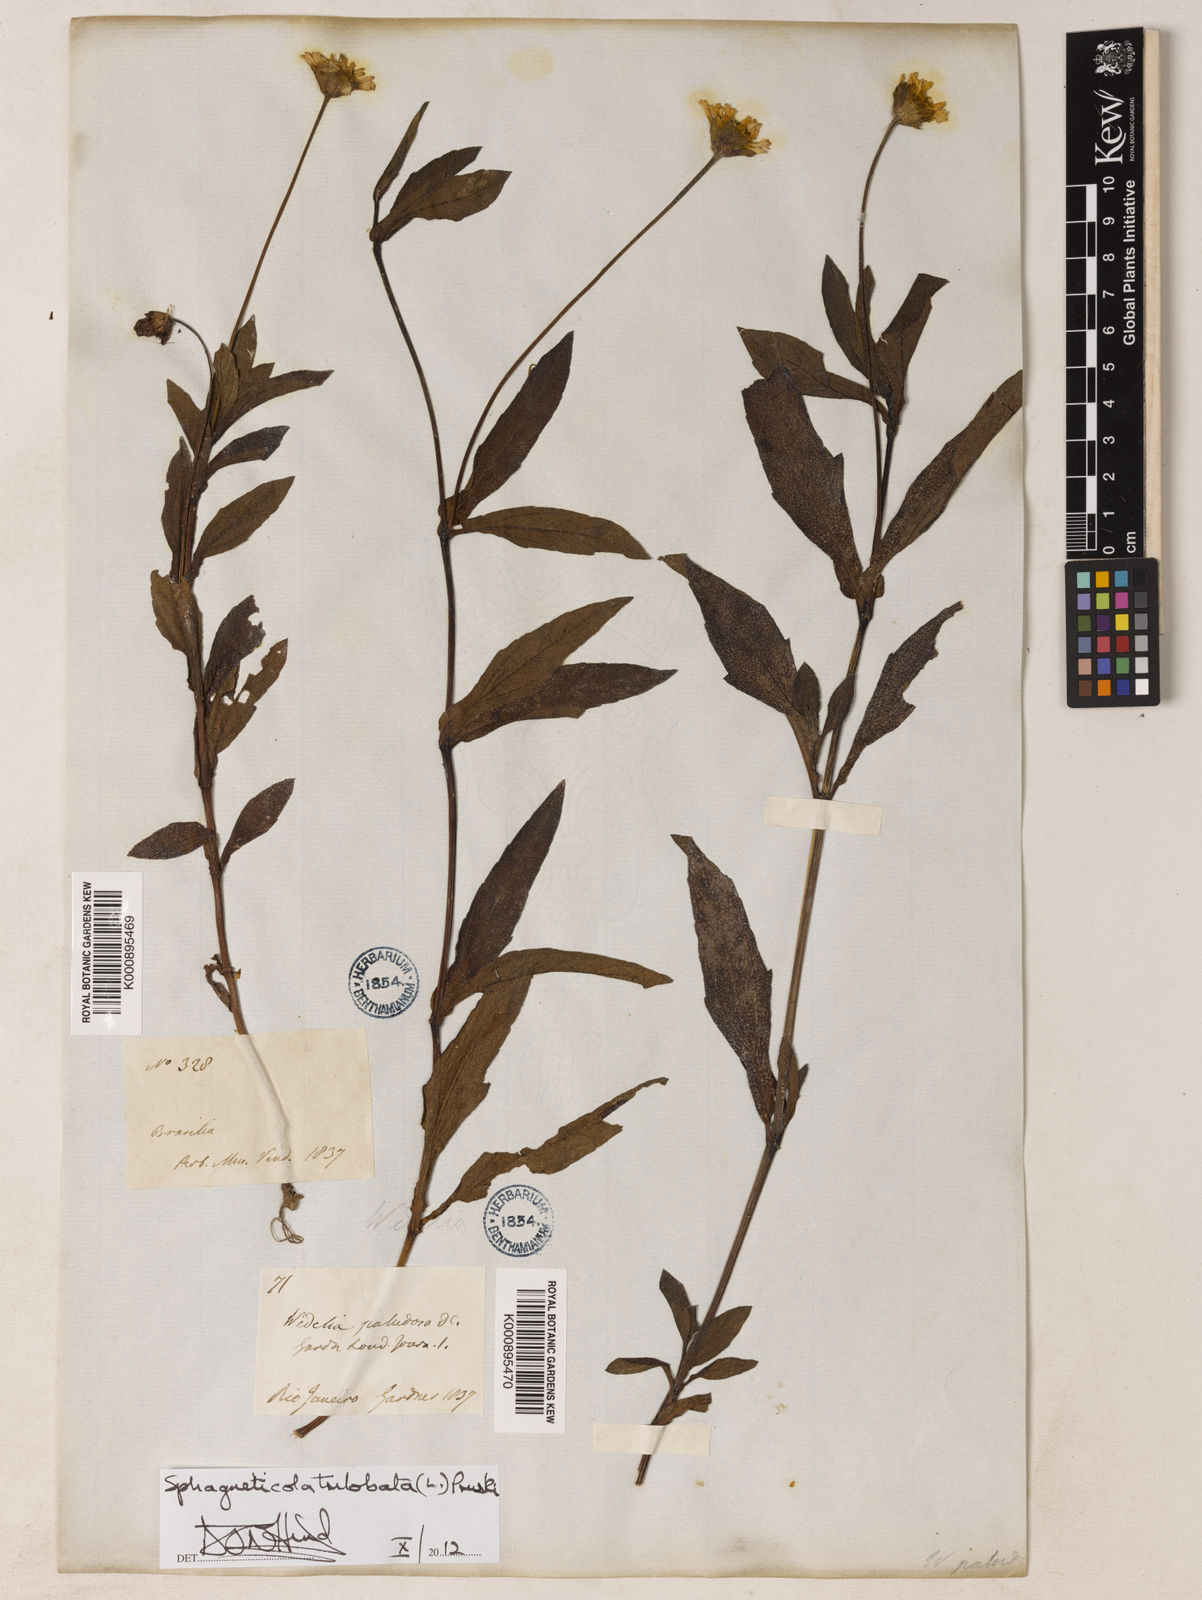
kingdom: Plantae
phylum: Tracheophyta
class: Magnoliopsida
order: Asterales
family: Asteraceae
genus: Sphagneticola
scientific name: Sphagneticola trilobata
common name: Bay biscayne creeping-oxeye
